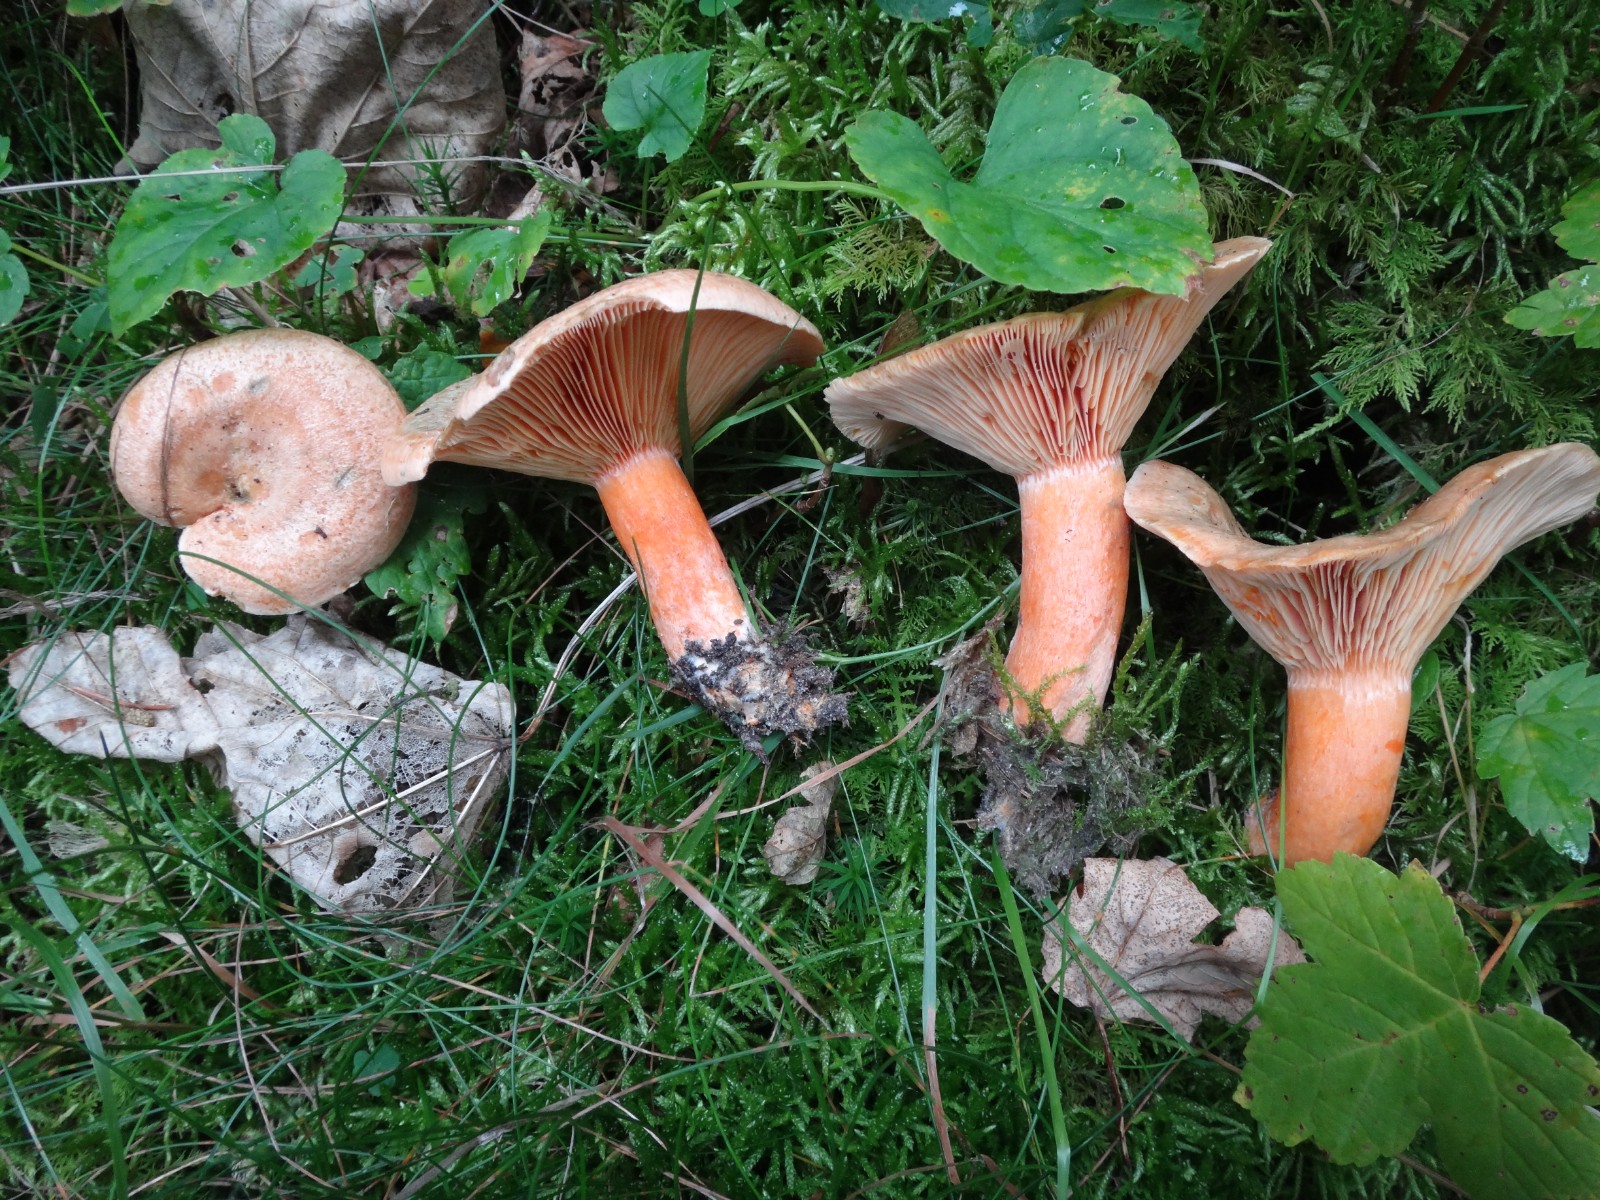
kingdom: Fungi
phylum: Basidiomycota
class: Agaricomycetes
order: Russulales
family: Russulaceae
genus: Lactarius
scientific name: Lactarius deterrimus
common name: gran-mælkehat
